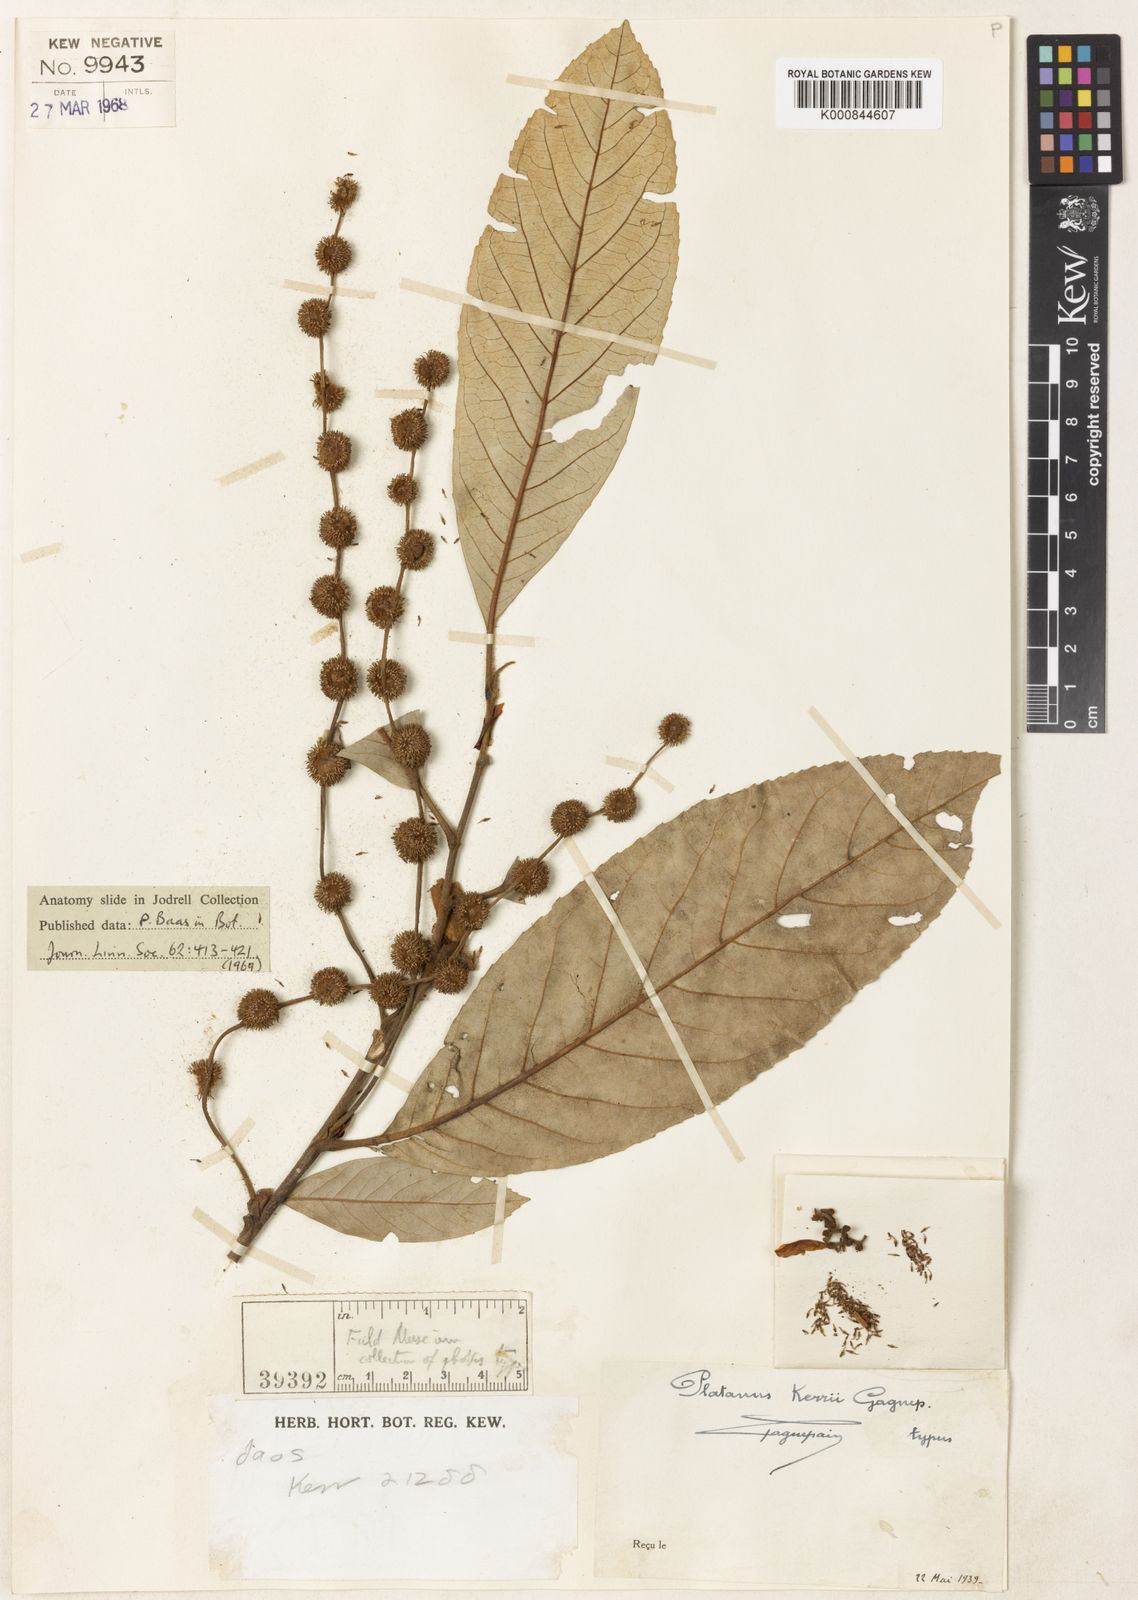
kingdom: Plantae
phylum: Tracheophyta
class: Magnoliopsida
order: Proteales
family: Platanaceae
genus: Platanus
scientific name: Platanus kerrii
